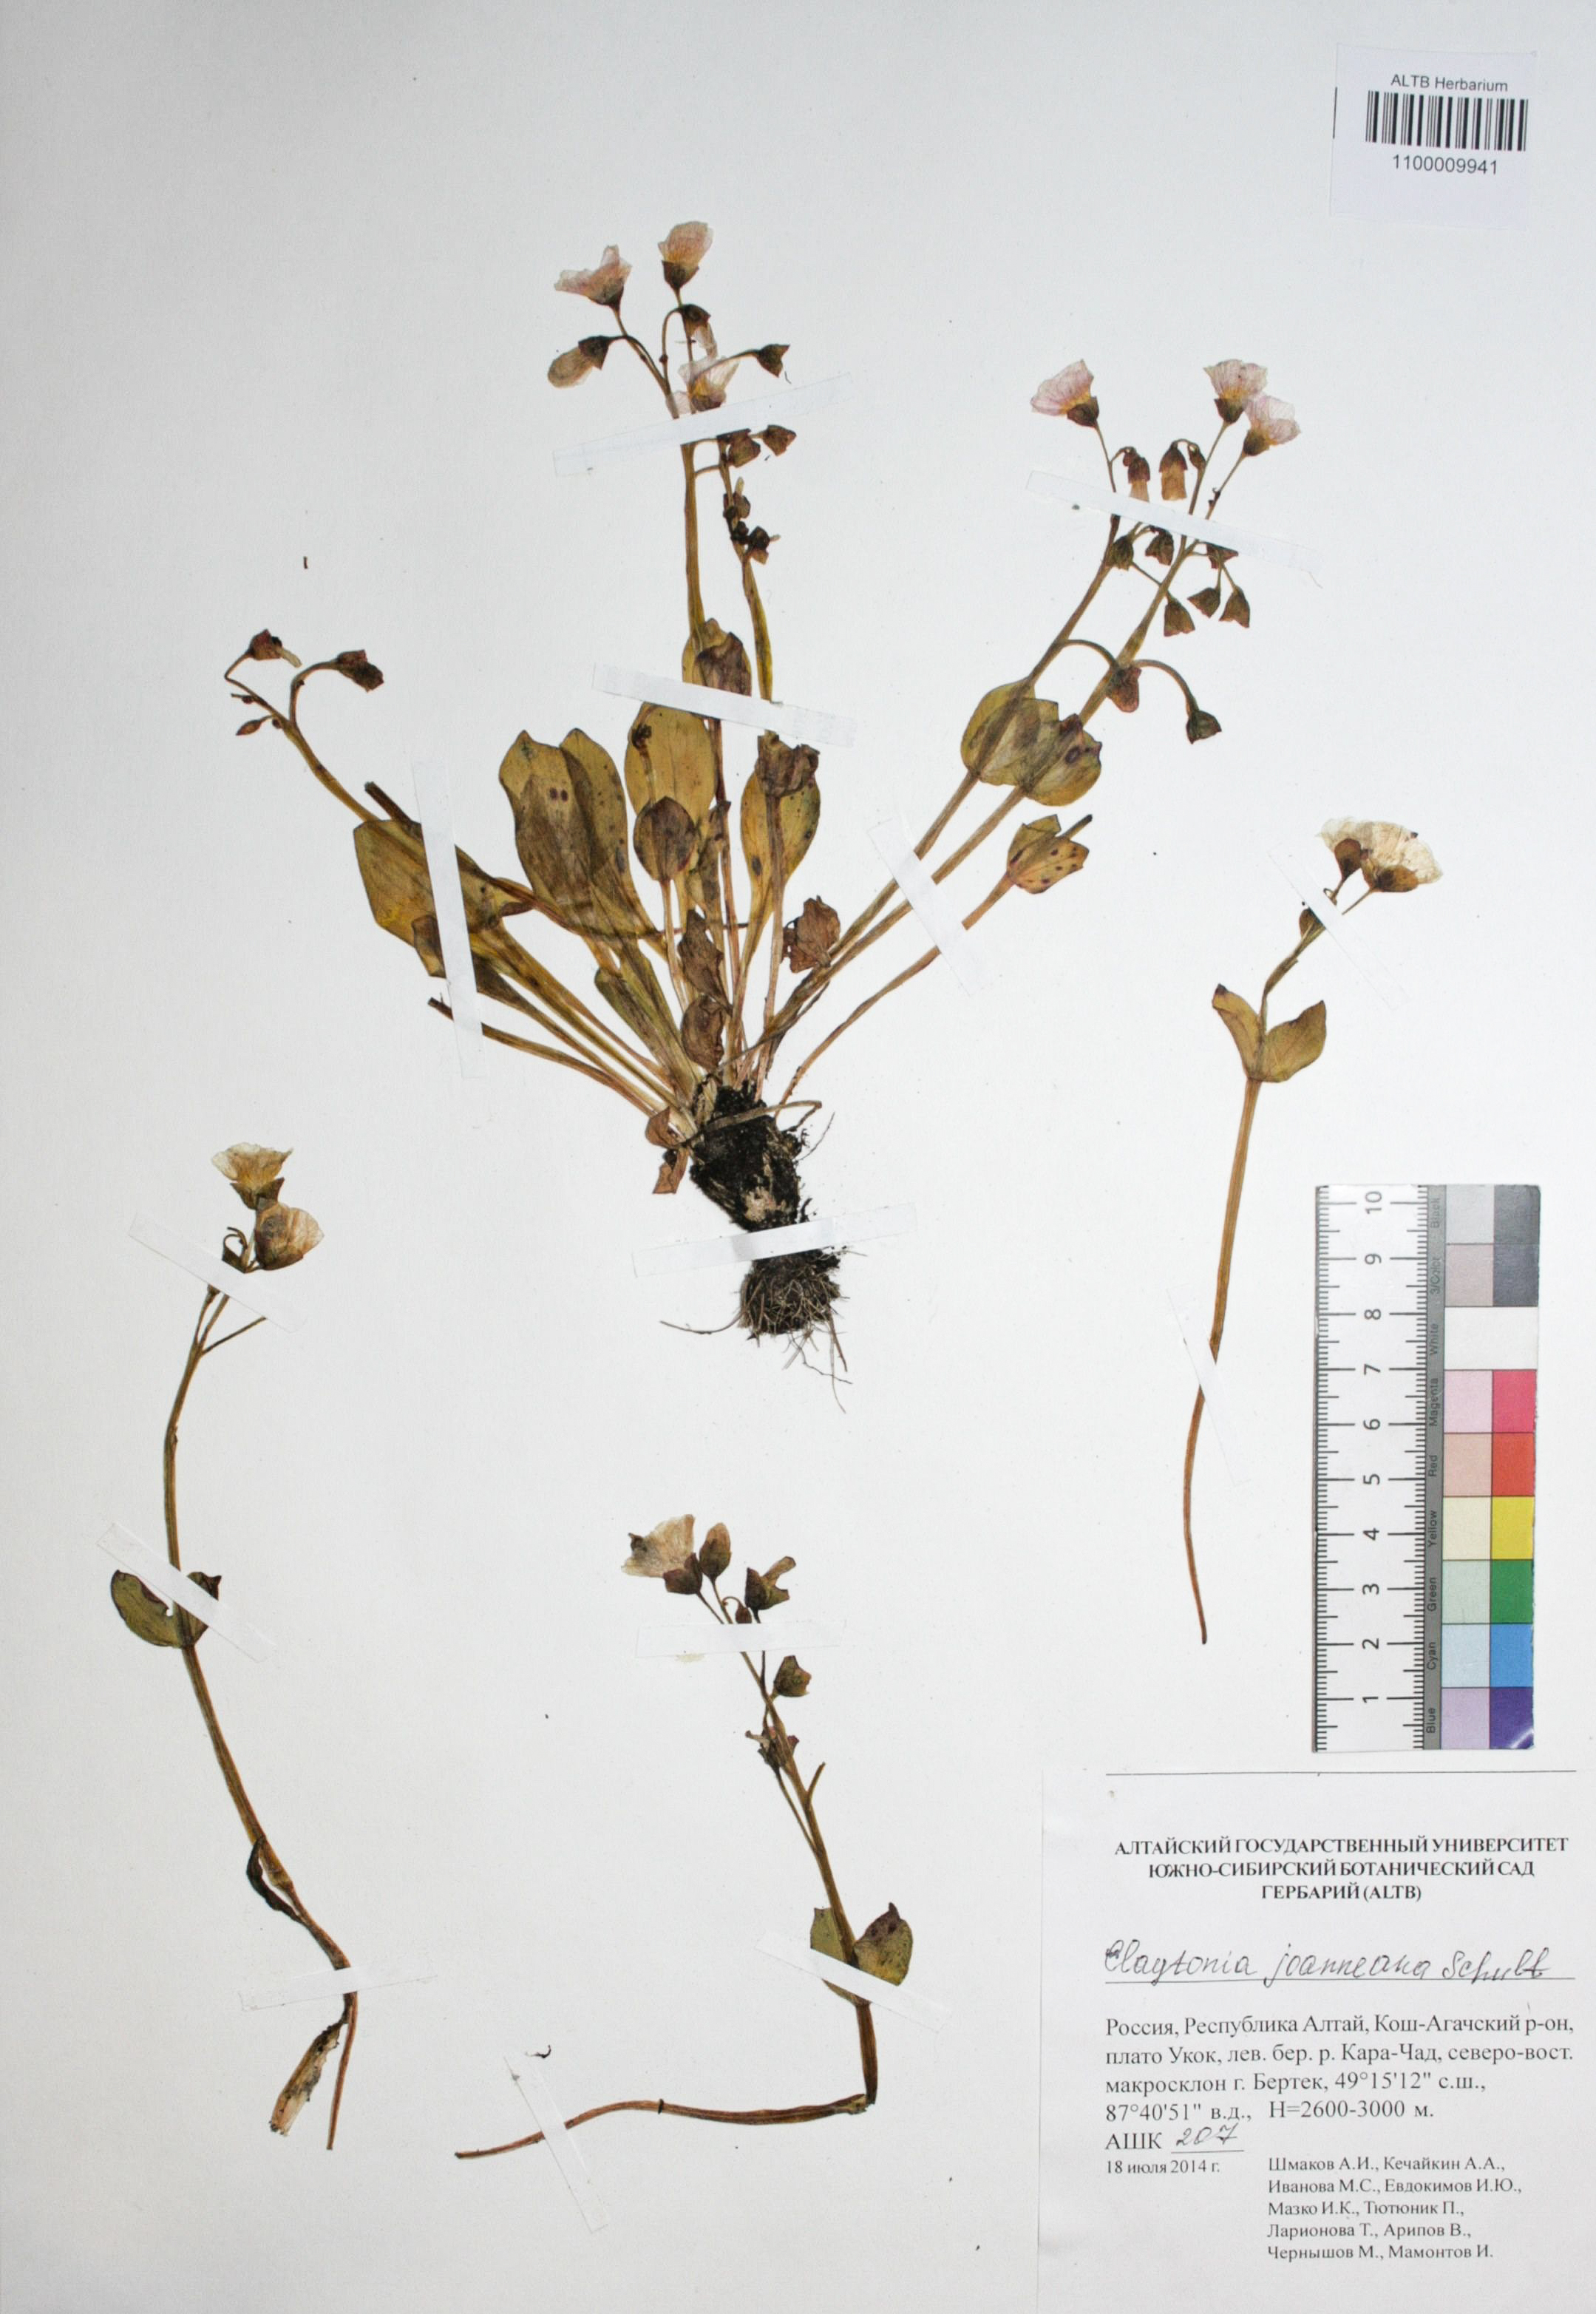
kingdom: Plantae
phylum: Tracheophyta
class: Magnoliopsida
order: Caryophyllales
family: Montiaceae
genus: Claytonia
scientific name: Claytonia joanneana
